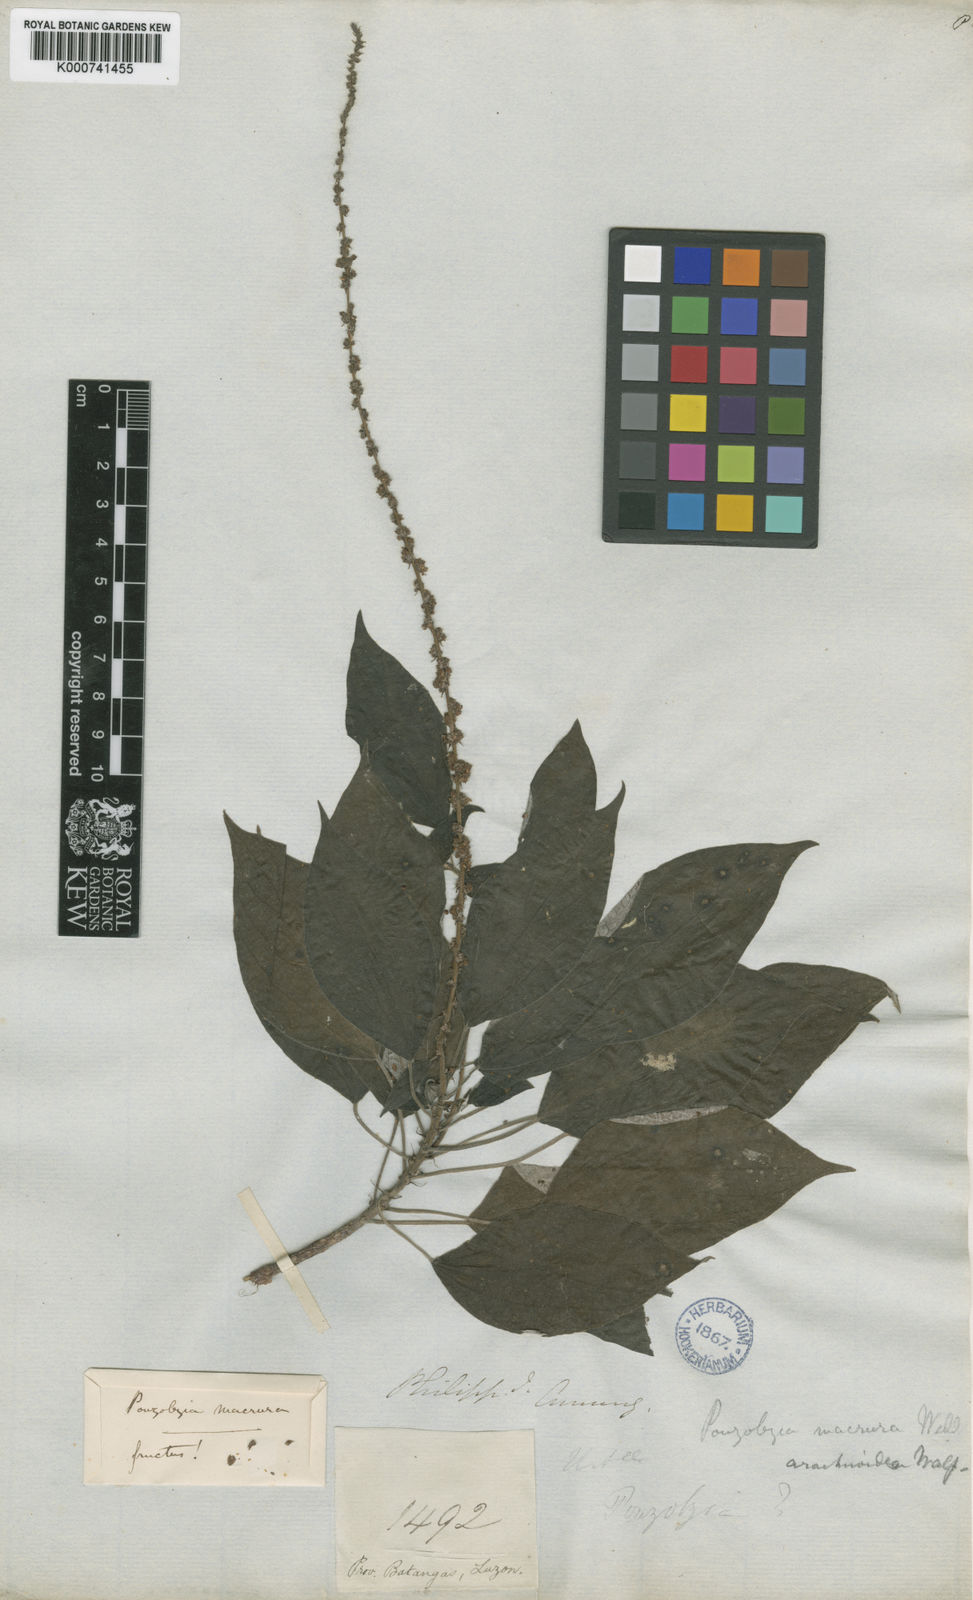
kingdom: Plantae
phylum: Tracheophyta
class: Magnoliopsida
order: Rosales
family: Urticaceae
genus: Pouzolzia
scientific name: Pouzolzia arachnoidea
